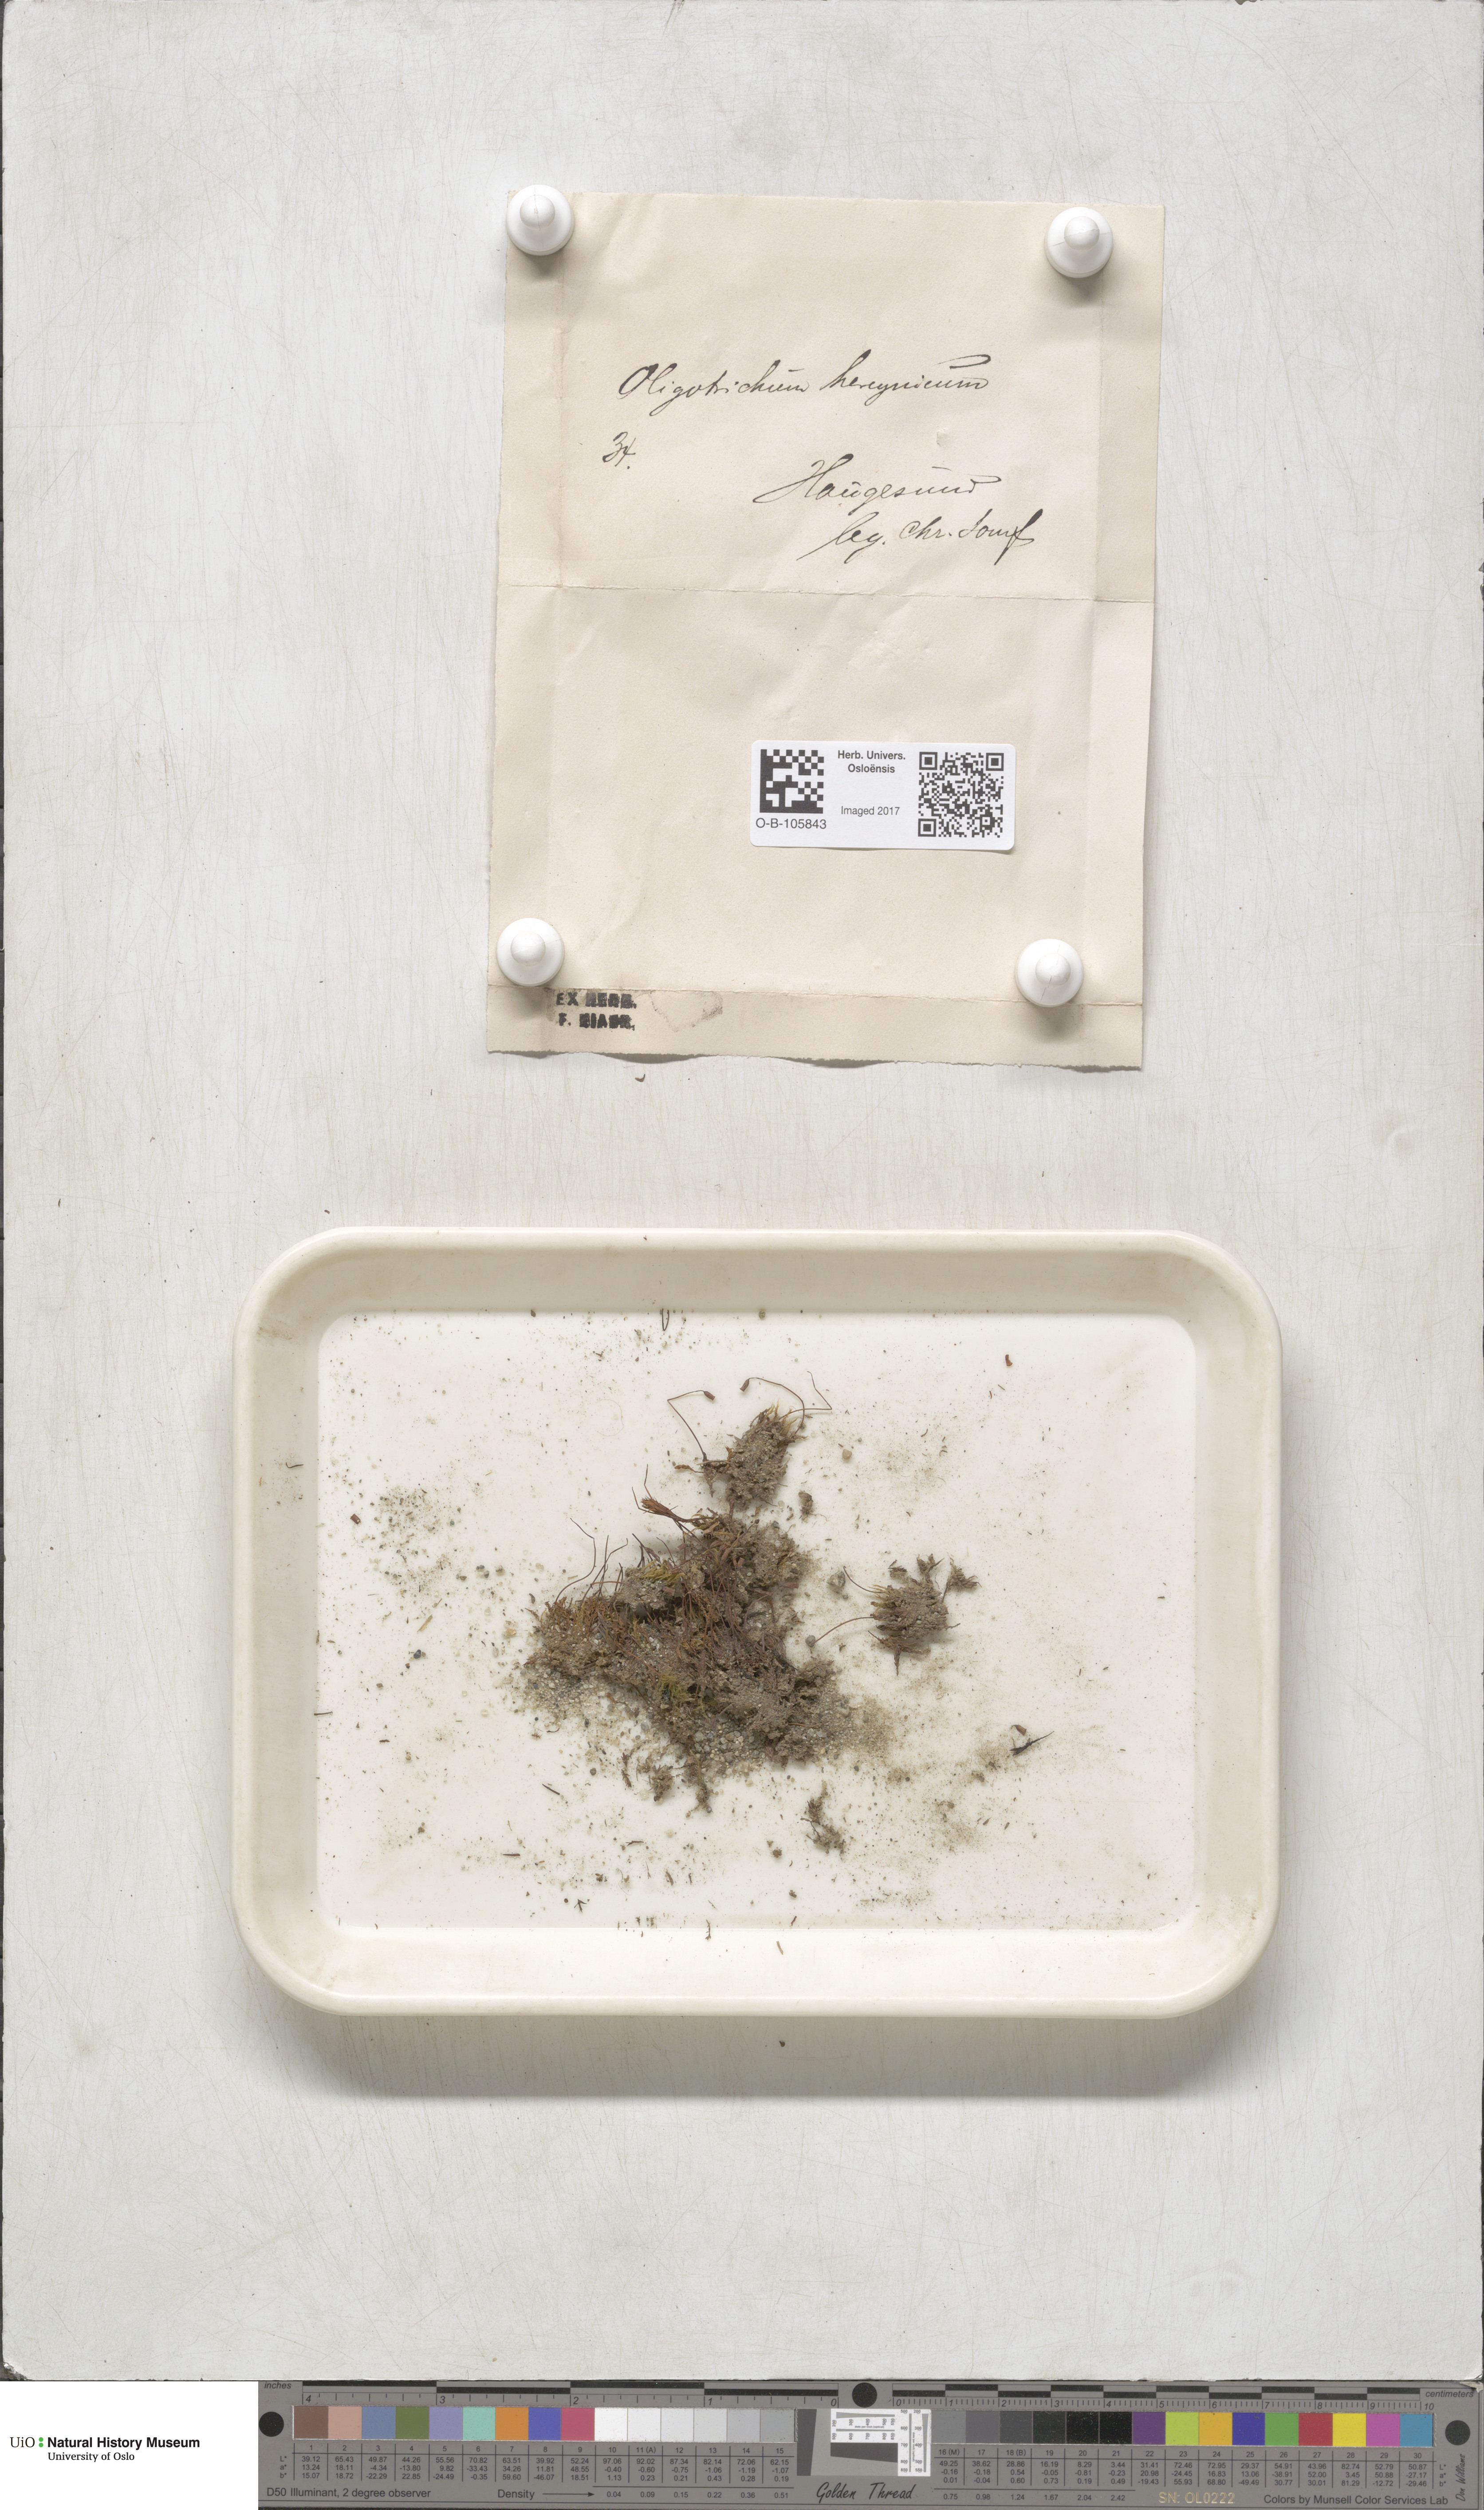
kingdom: Plantae
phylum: Bryophyta
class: Polytrichopsida
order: Polytrichales
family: Polytrichaceae
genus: Oligotrichum
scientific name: Oligotrichum hercynicum
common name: Hercynian hair moss
